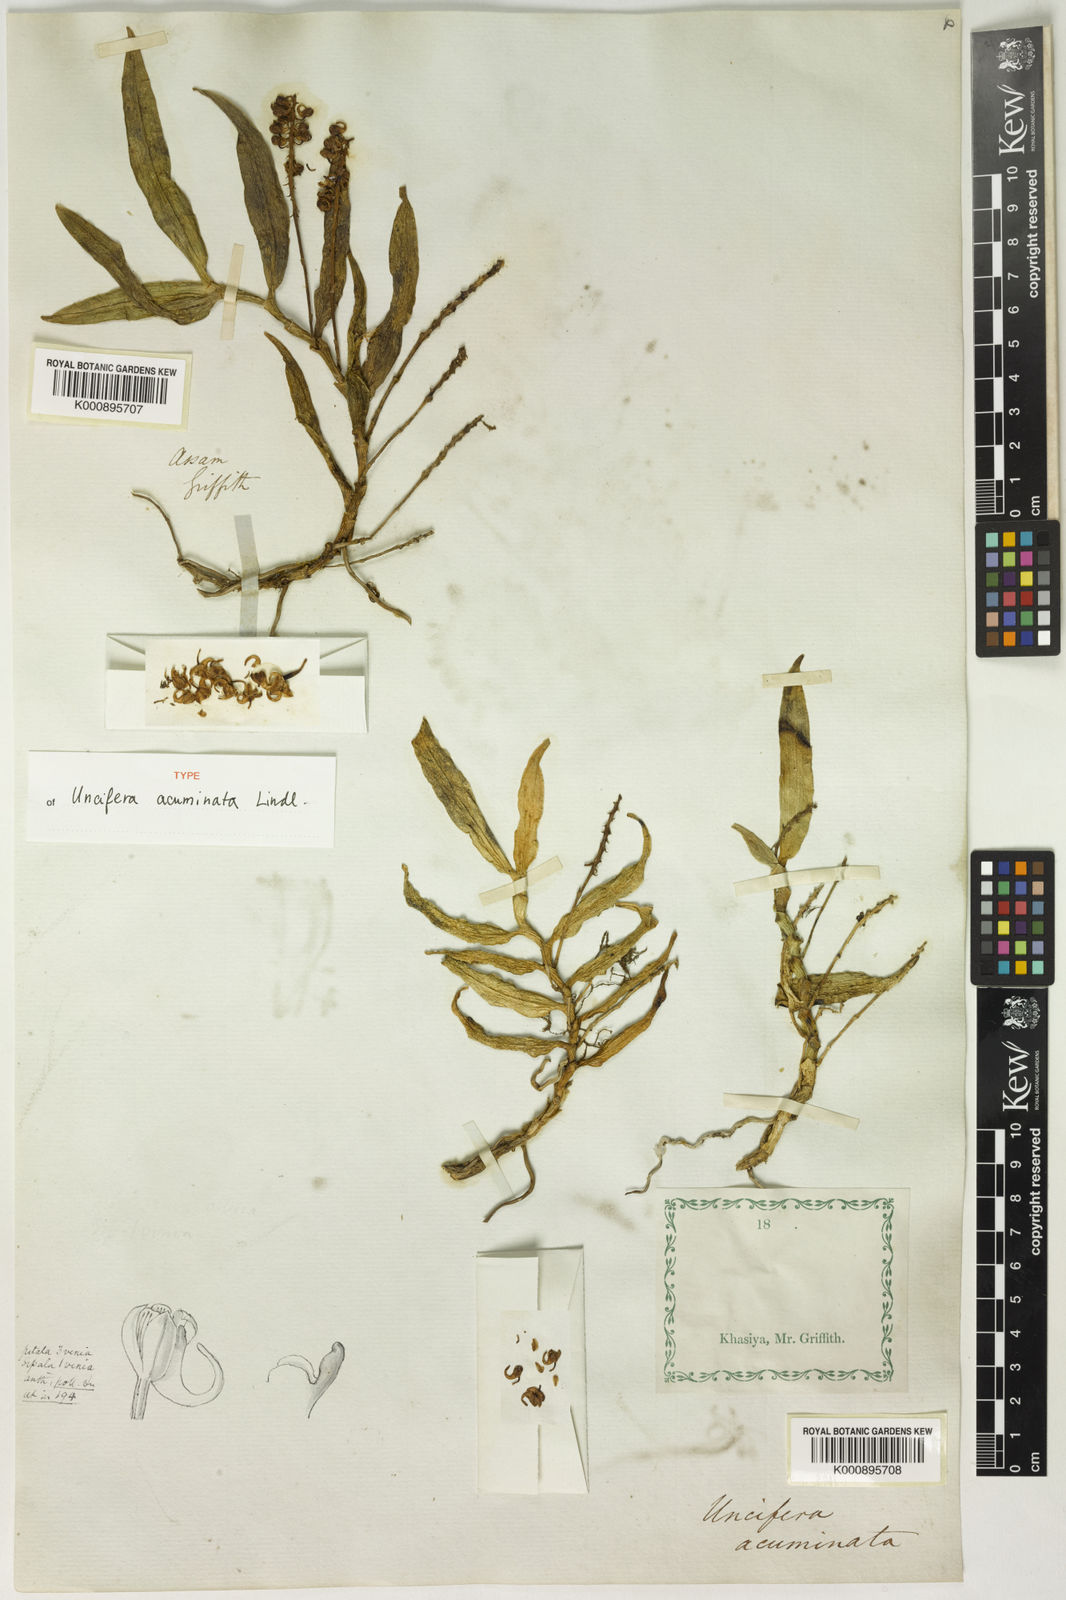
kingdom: Plantae
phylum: Tracheophyta
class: Liliopsida
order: Asparagales
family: Orchidaceae
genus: Uncifera
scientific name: Uncifera acuminata
